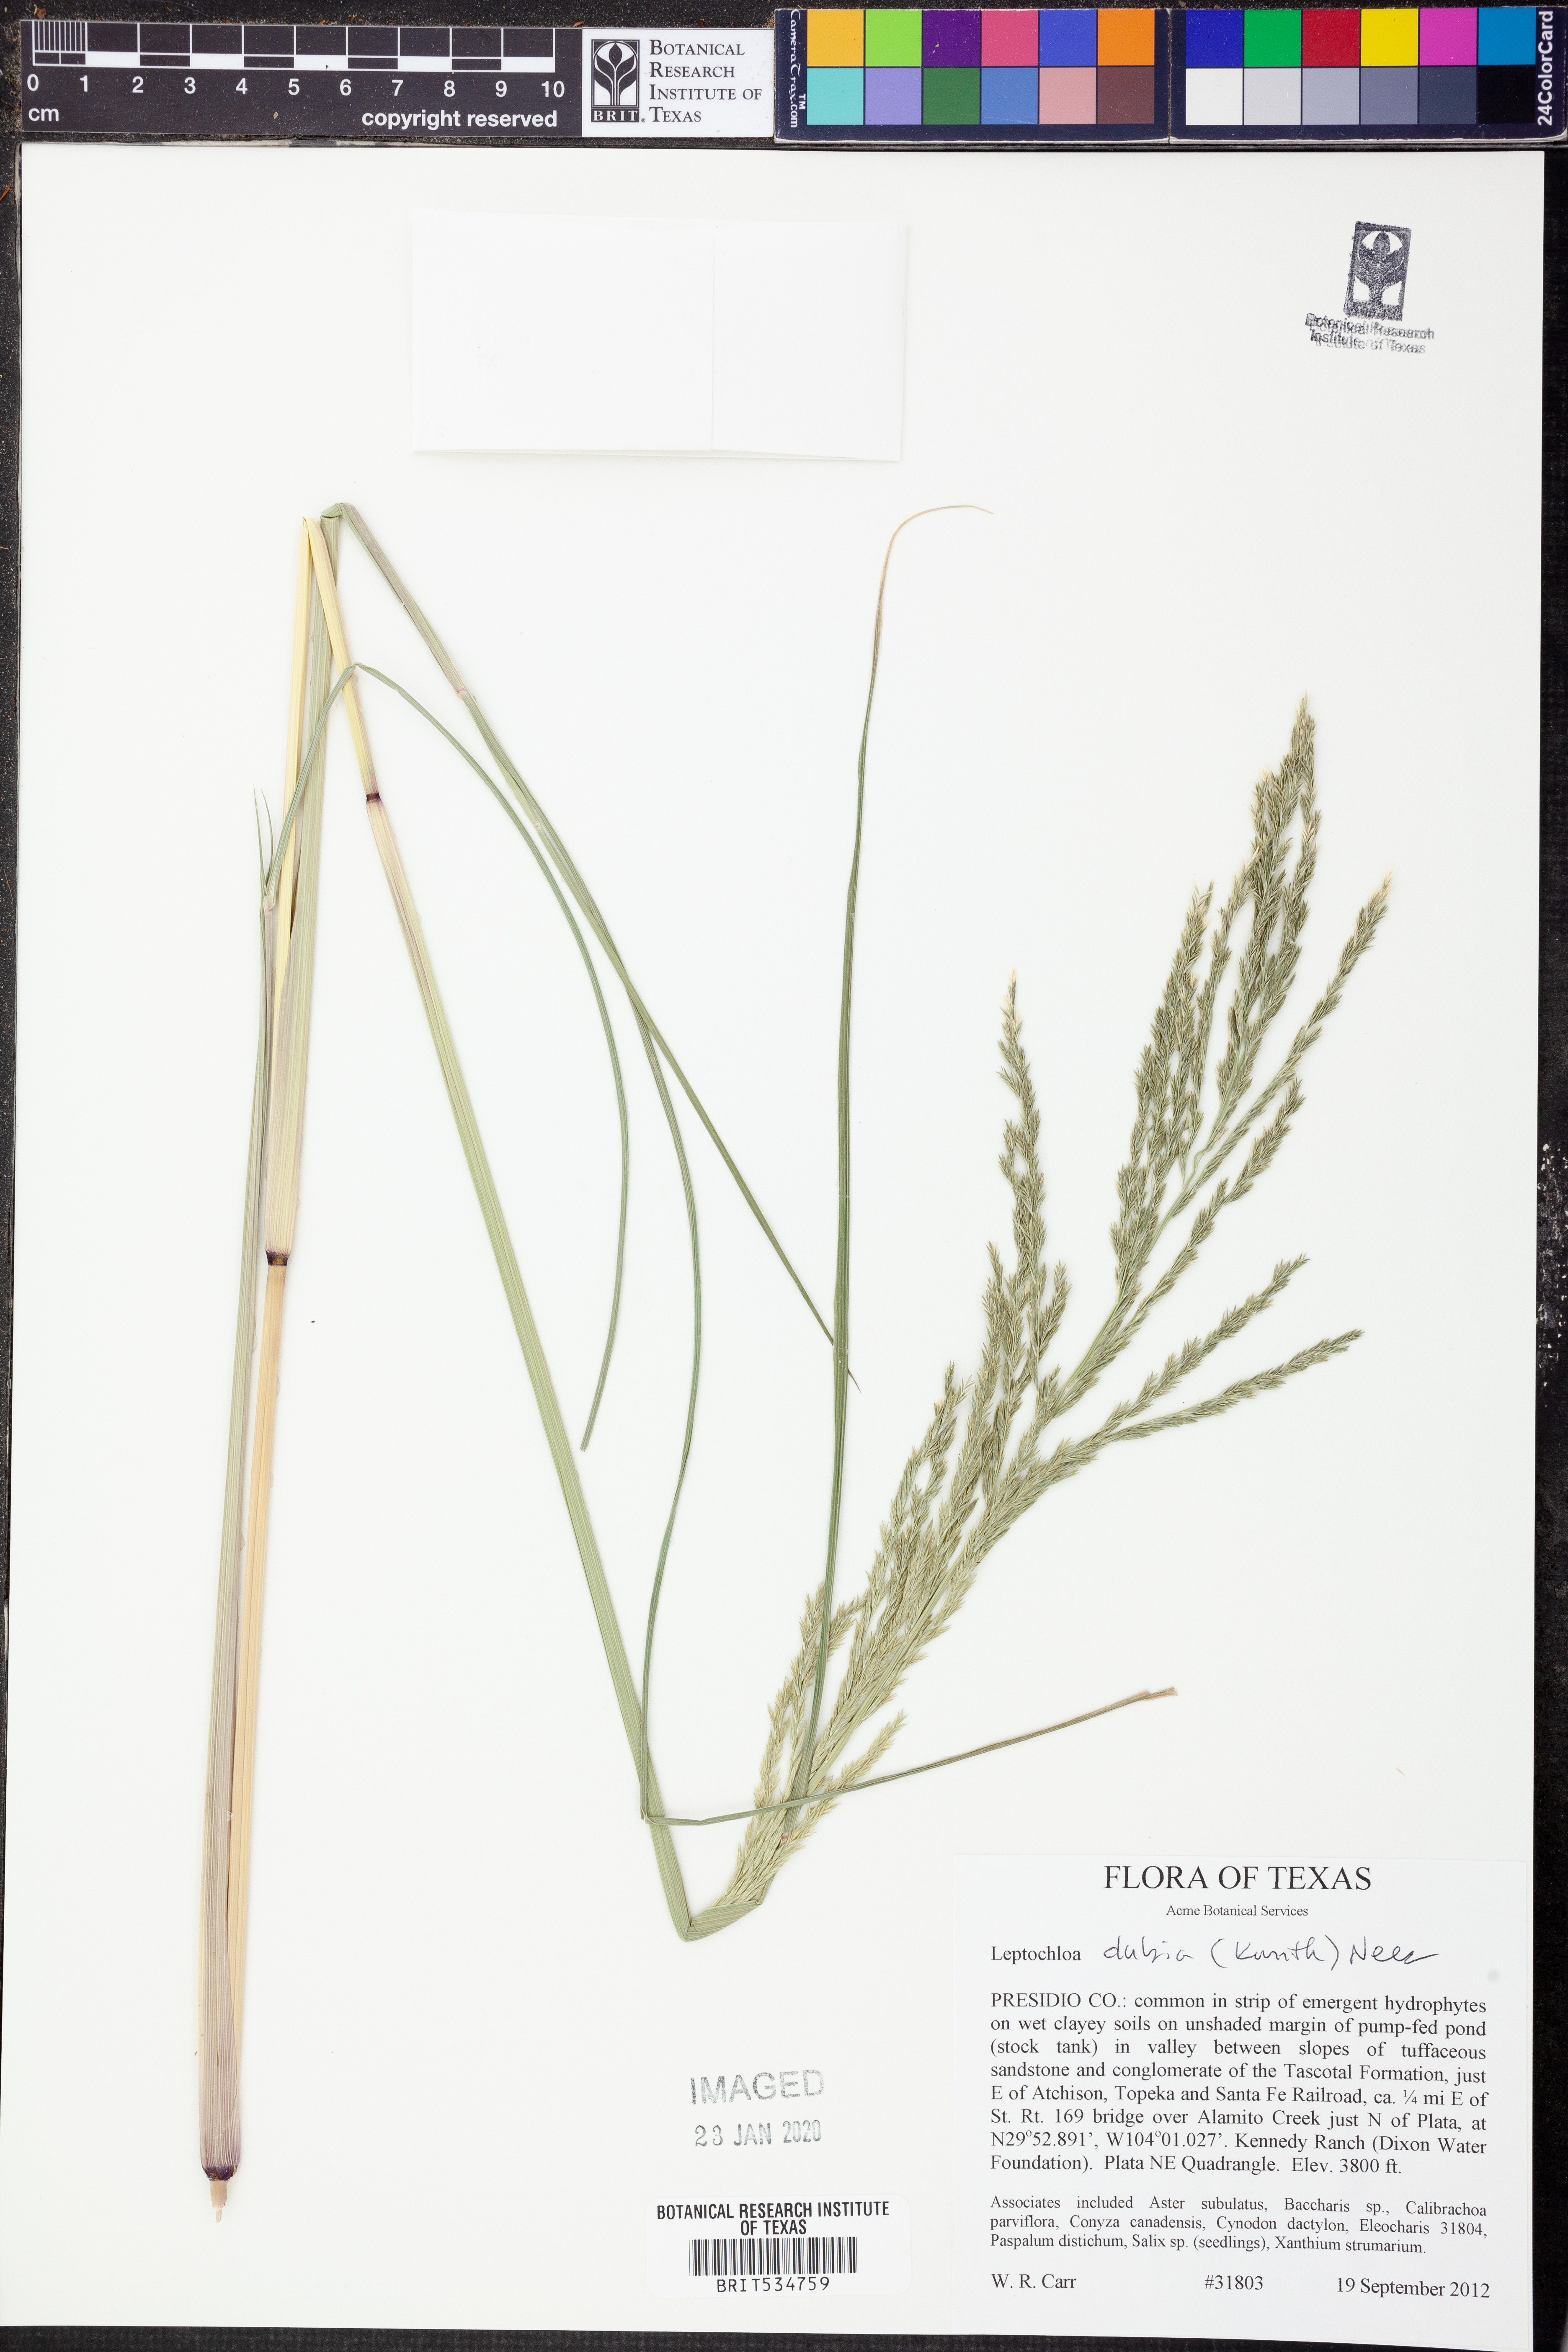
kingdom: Plantae
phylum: Tracheophyta
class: Liliopsida
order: Poales
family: Poaceae
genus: Disakisperma
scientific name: Disakisperma dubium
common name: Green sprangletop
